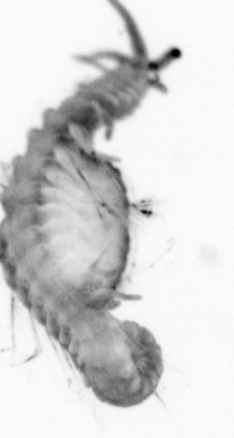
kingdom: Animalia
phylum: Annelida
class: Polychaeta
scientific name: Polychaeta
